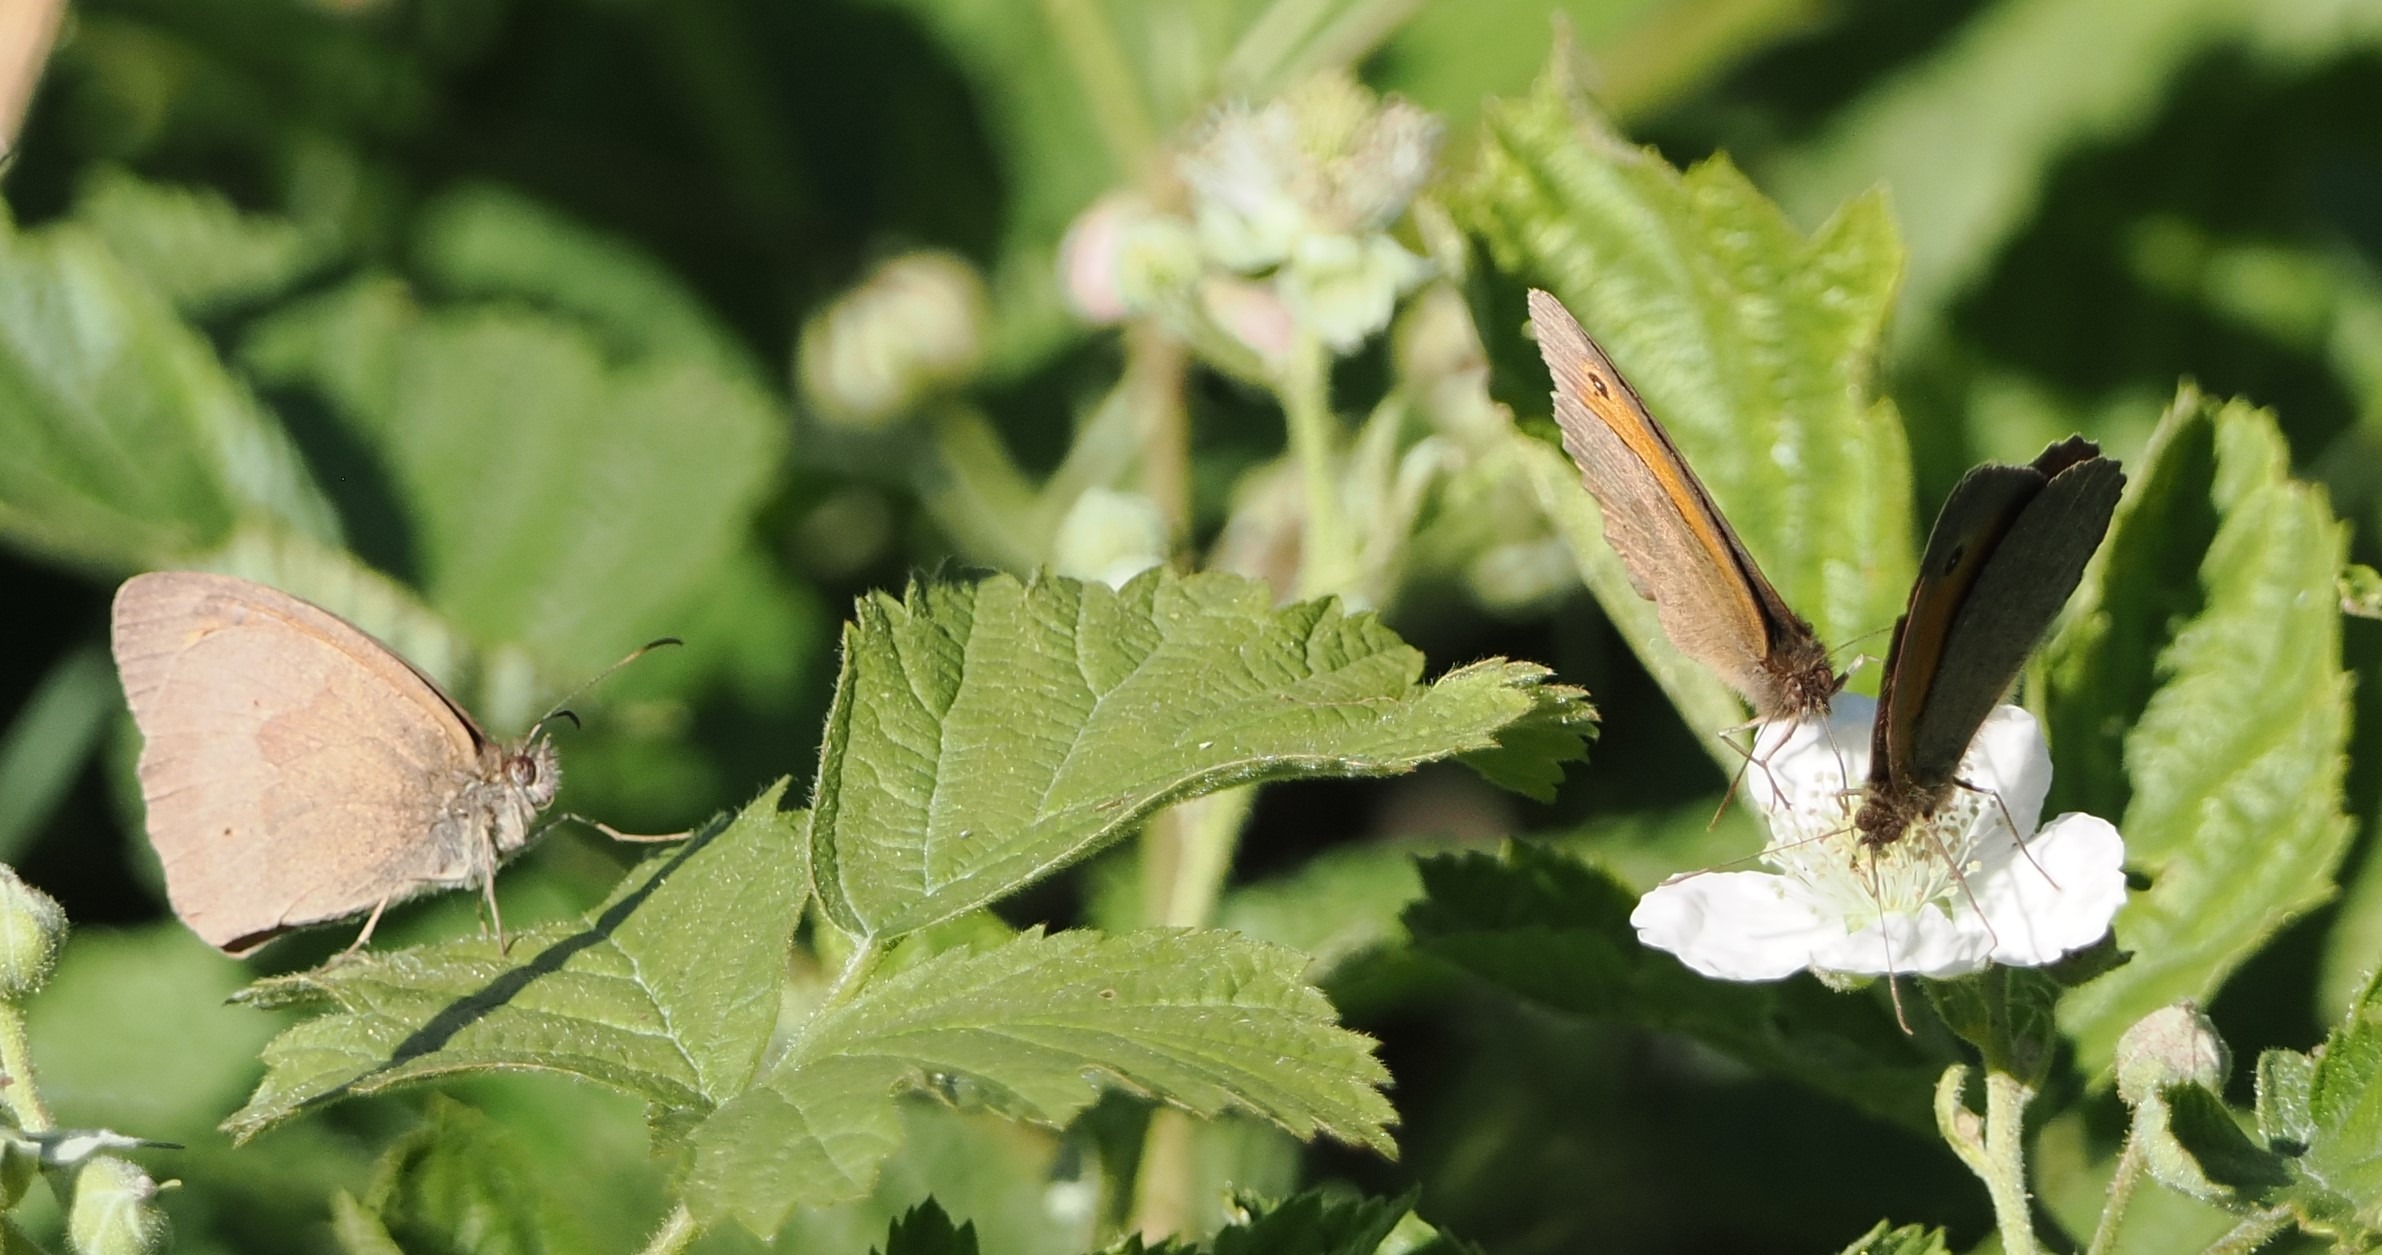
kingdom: Animalia
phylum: Arthropoda
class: Insecta
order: Lepidoptera
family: Nymphalidae
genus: Maniola
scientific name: Maniola jurtina
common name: Græsrandøje
